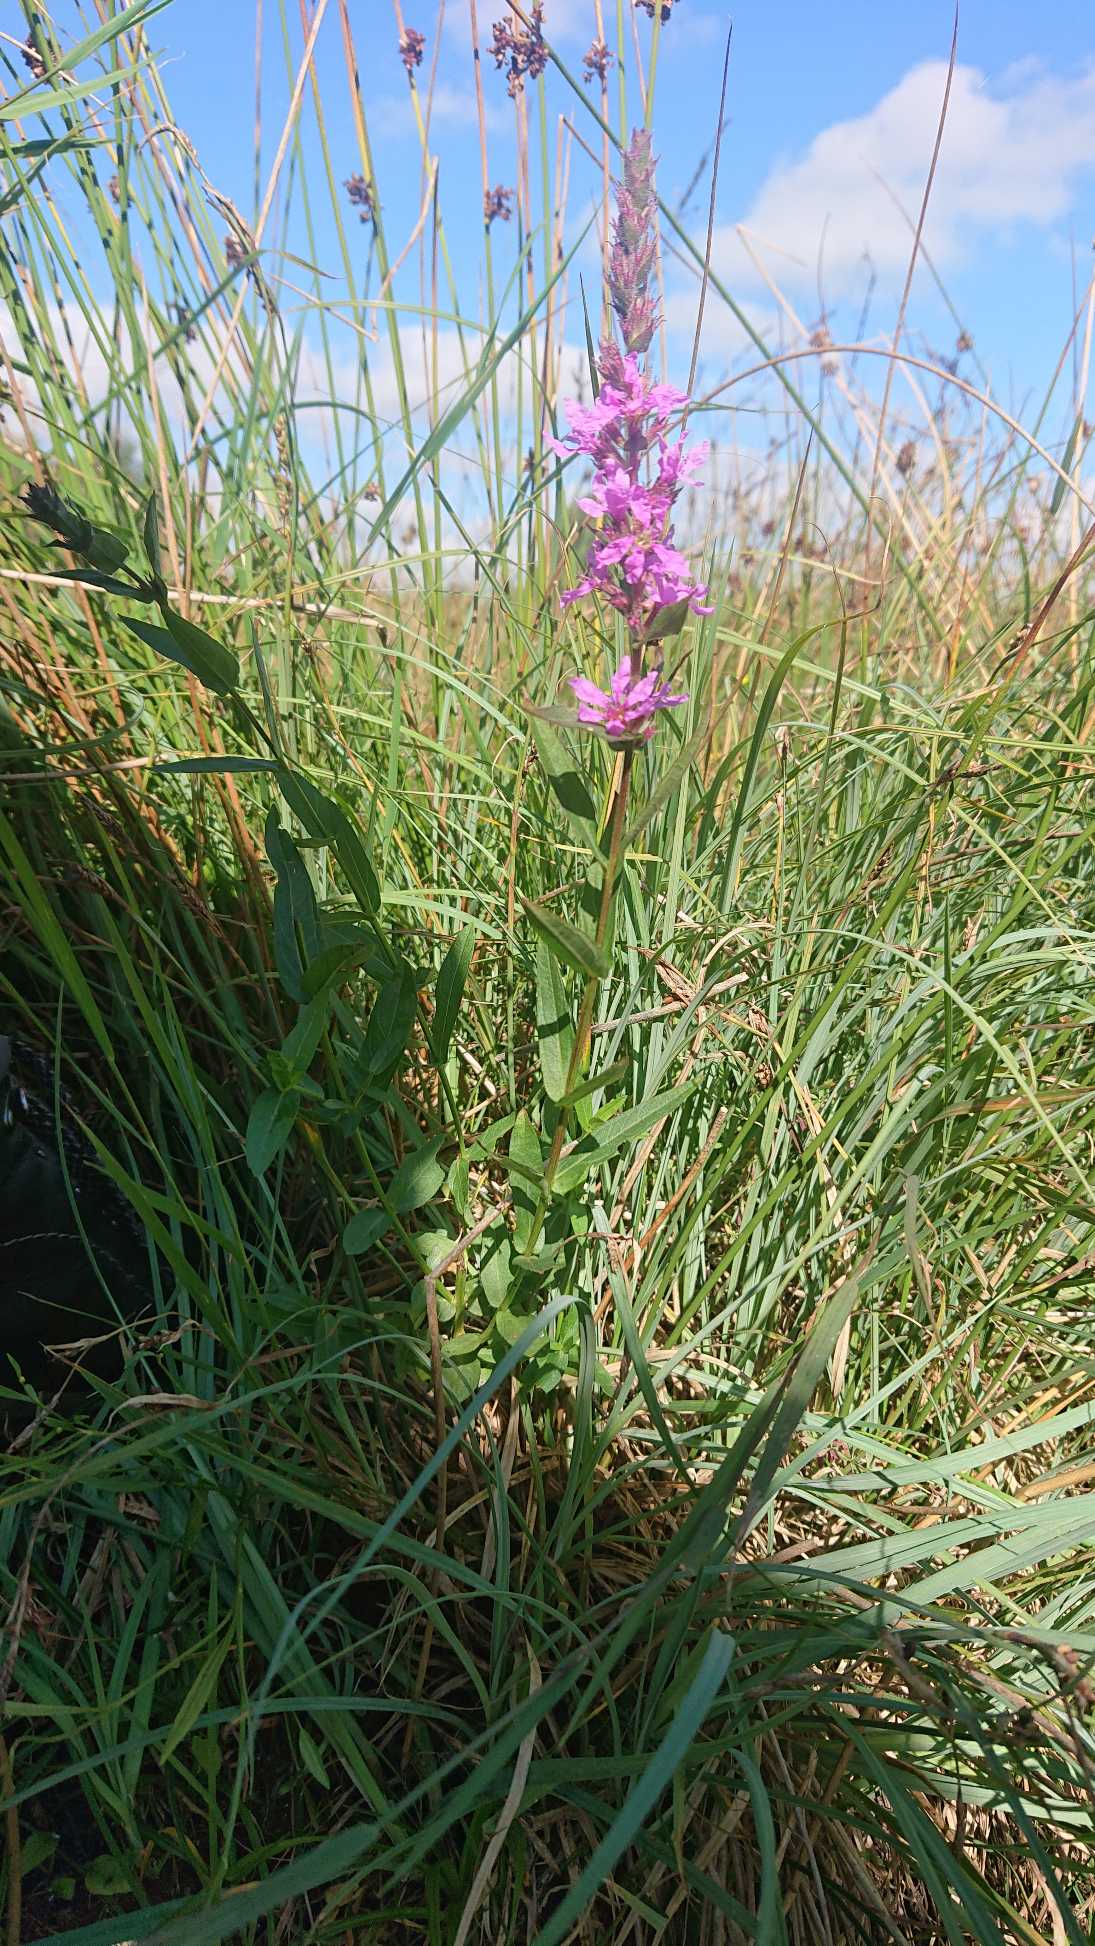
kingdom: Plantae
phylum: Tracheophyta
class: Magnoliopsida
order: Myrtales
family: Lythraceae
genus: Lythrum
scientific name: Lythrum salicaria
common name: Kattehale
